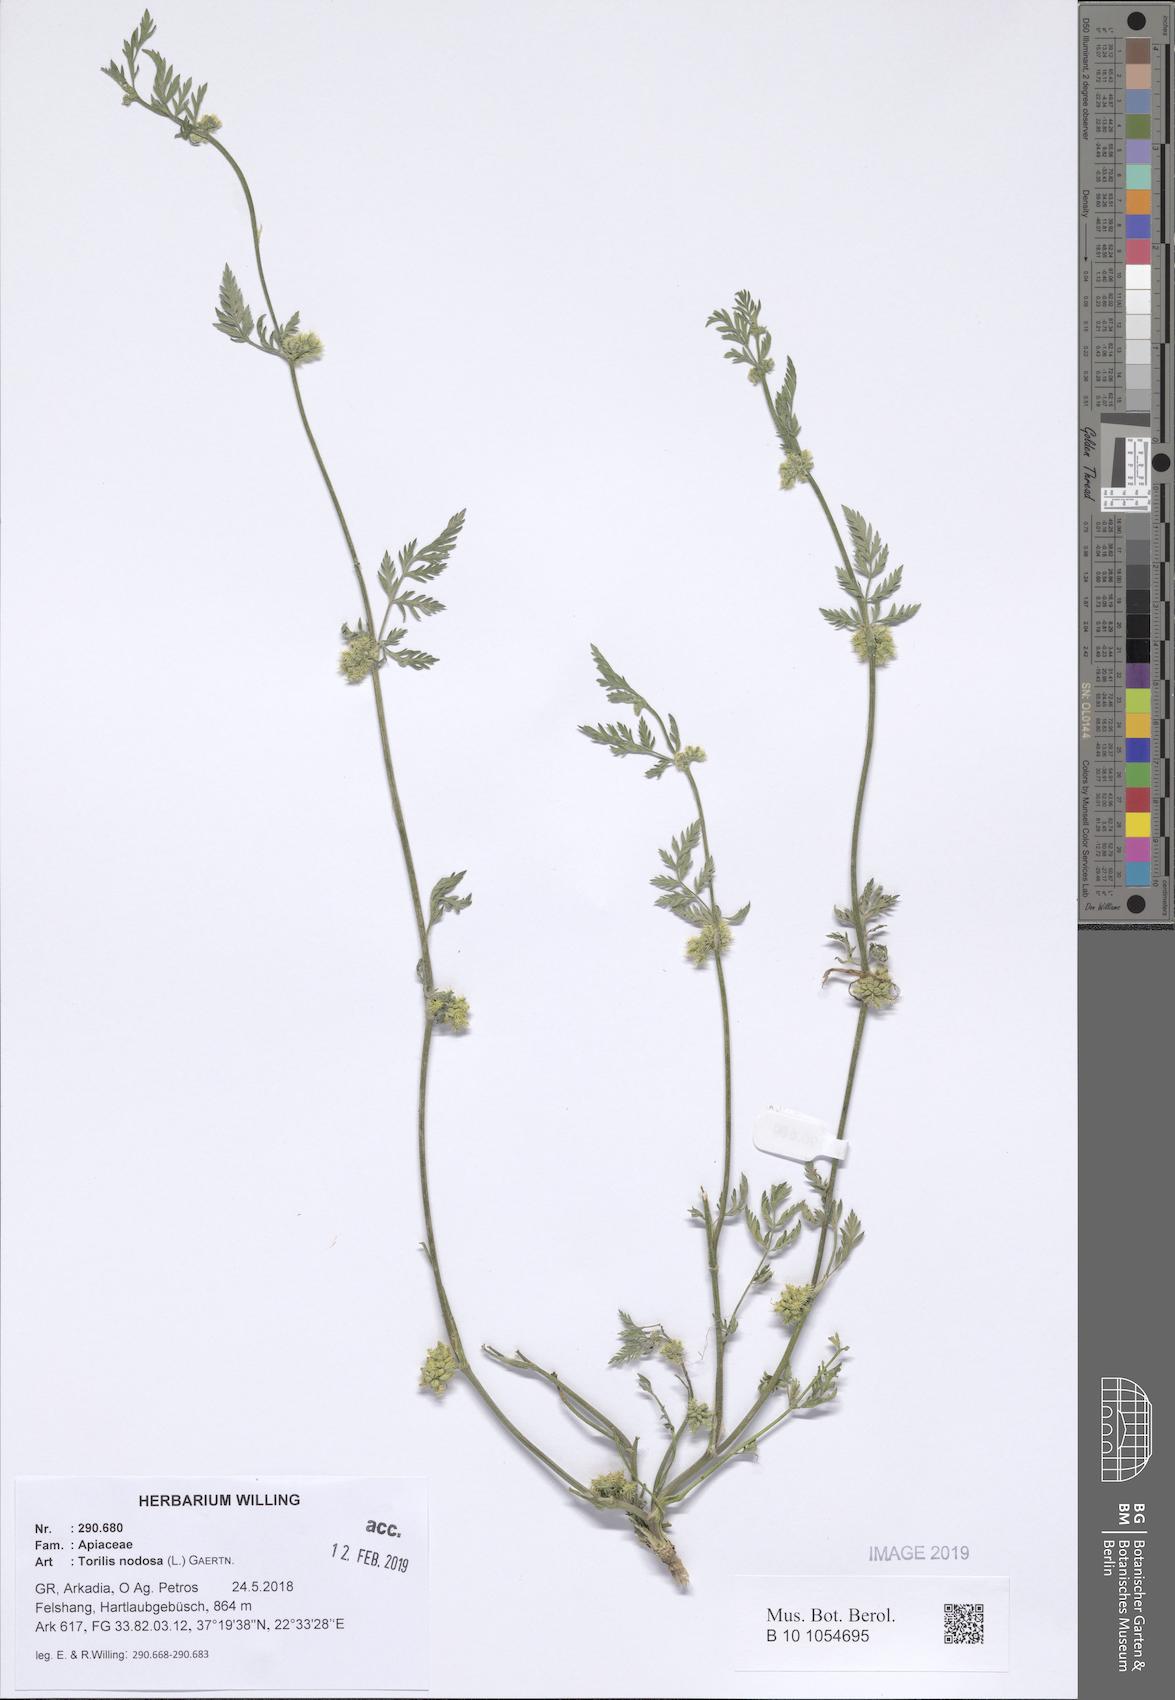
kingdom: Plantae
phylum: Tracheophyta
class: Magnoliopsida
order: Apiales
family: Apiaceae
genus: Torilis
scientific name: Torilis nodosa
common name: Knotted hedge-parsley
